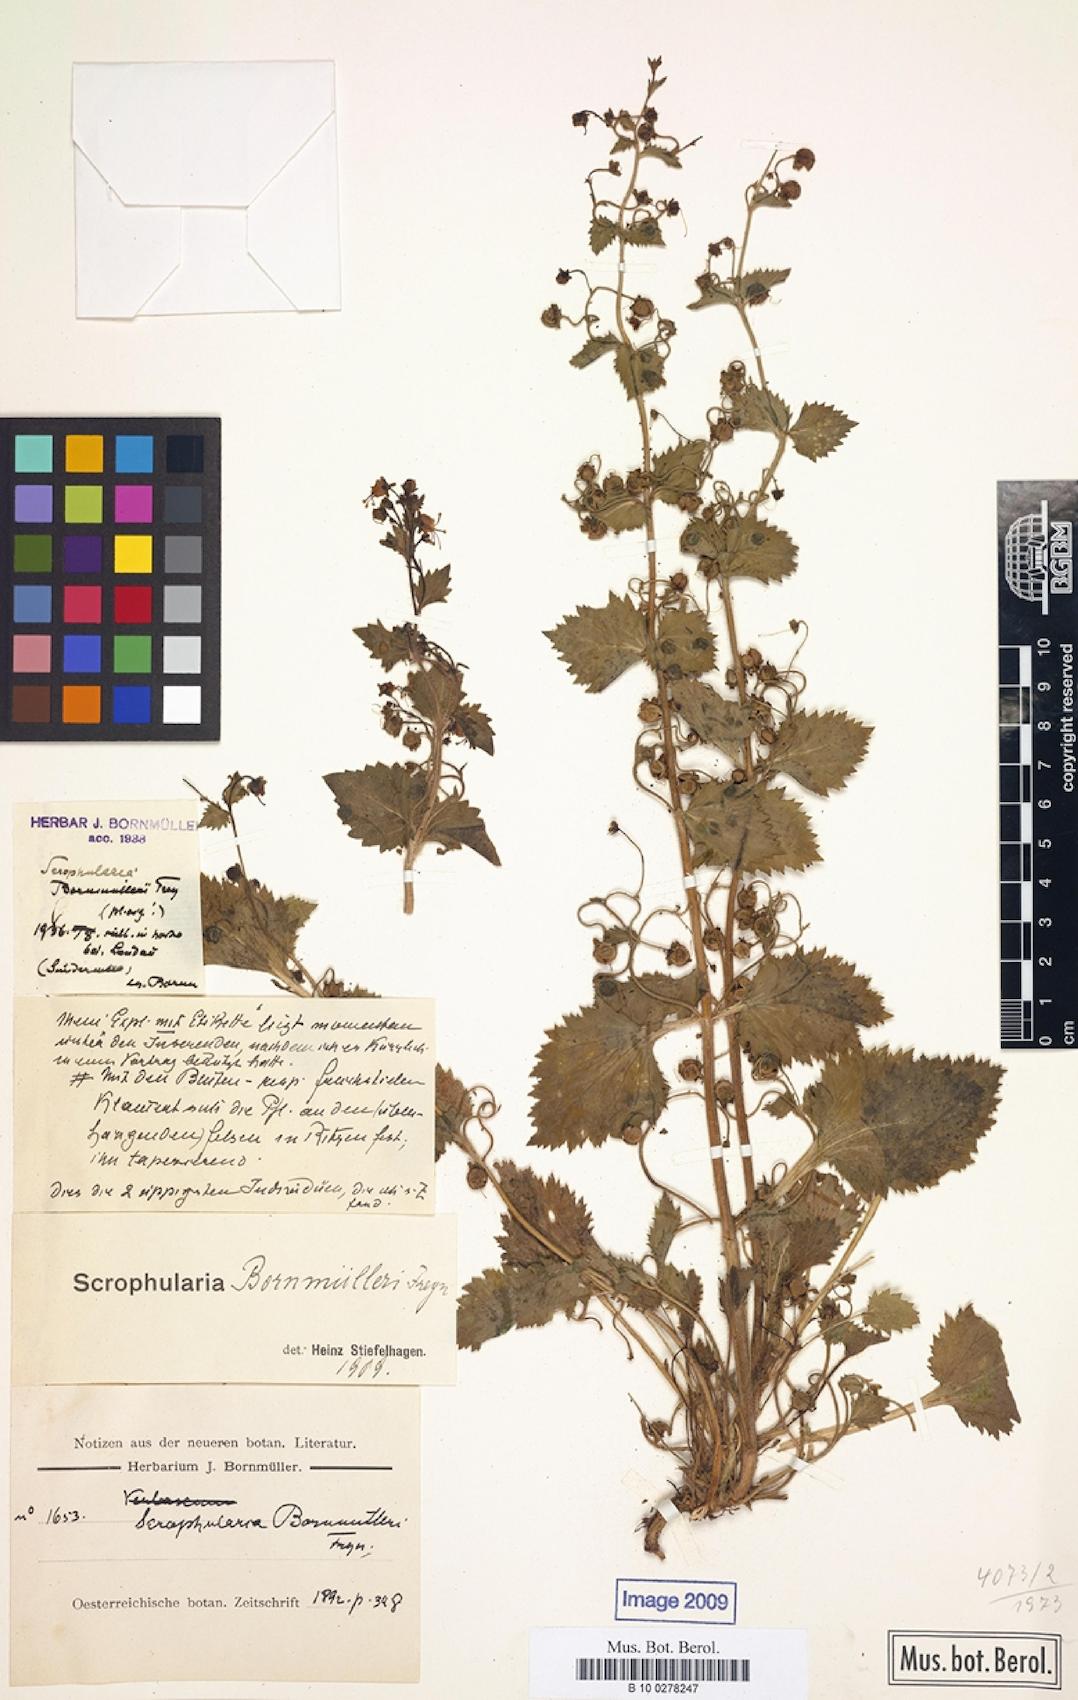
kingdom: Plantae
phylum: Tracheophyta
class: Magnoliopsida
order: Lamiales
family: Scrophulariaceae
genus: Scrophularia
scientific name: Scrophularia kotschyana
